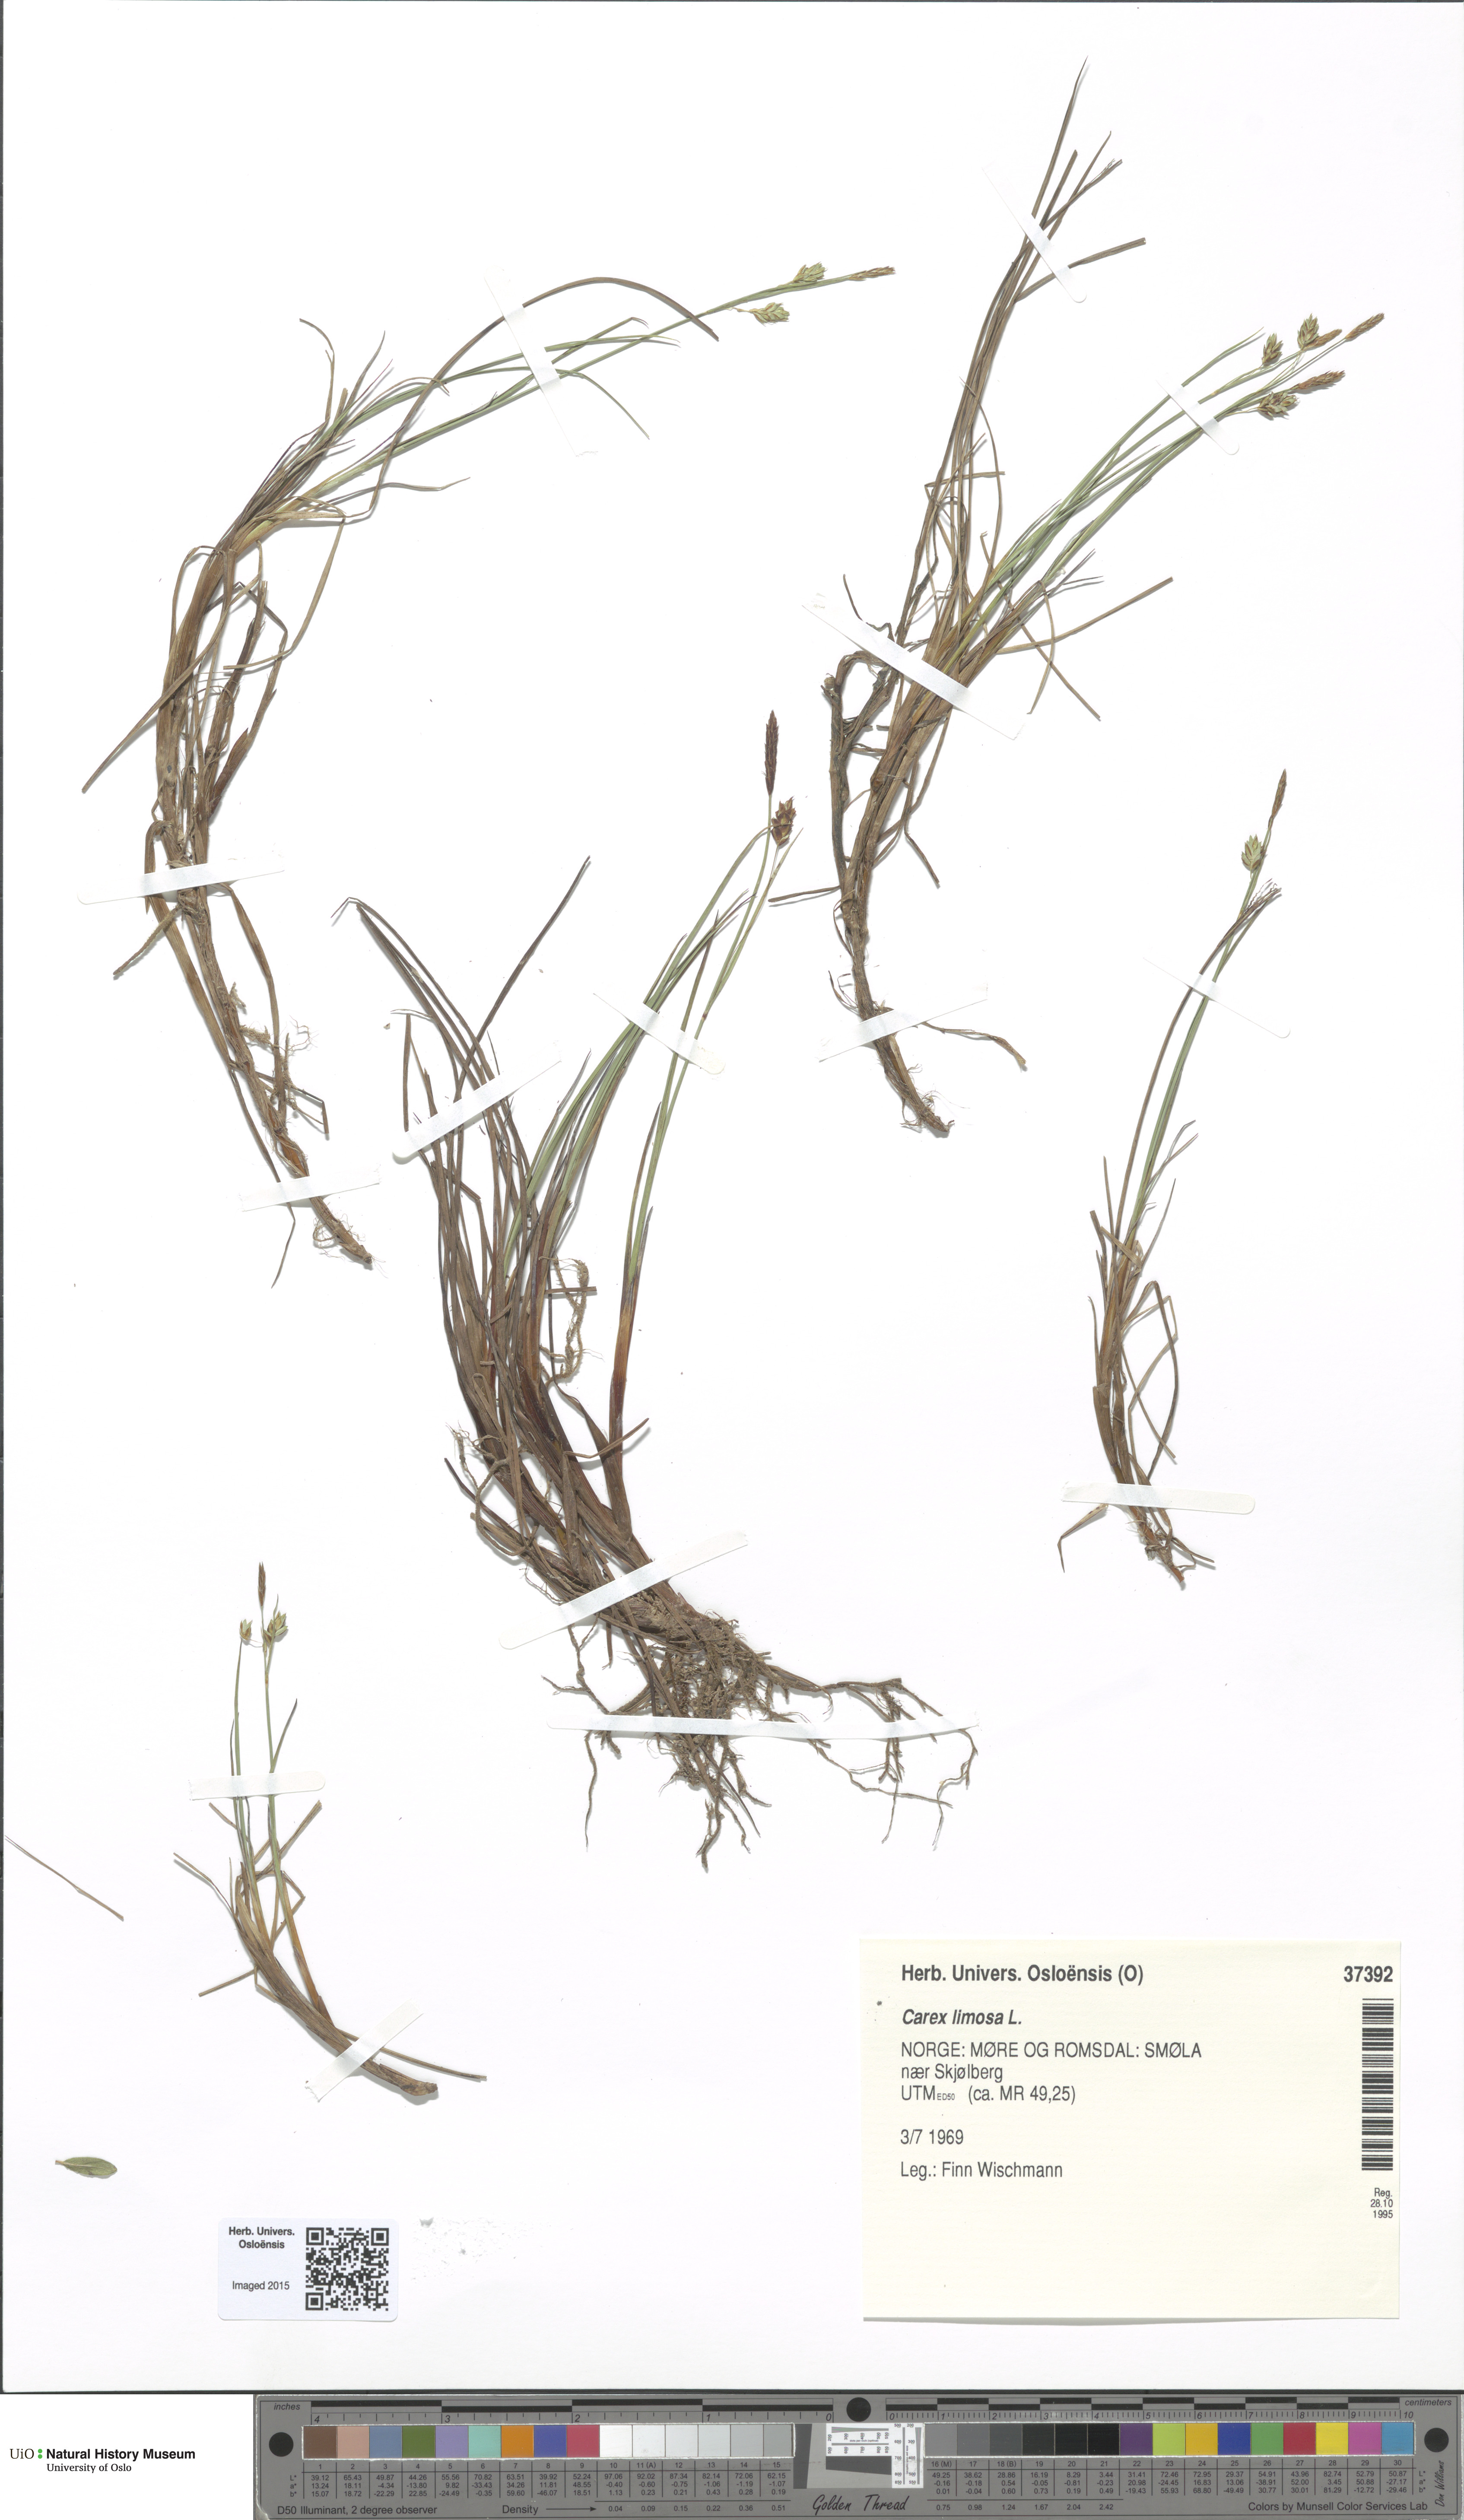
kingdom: Plantae
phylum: Tracheophyta
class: Liliopsida
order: Poales
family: Cyperaceae
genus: Carex
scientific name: Carex limosa
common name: Bog sedge
